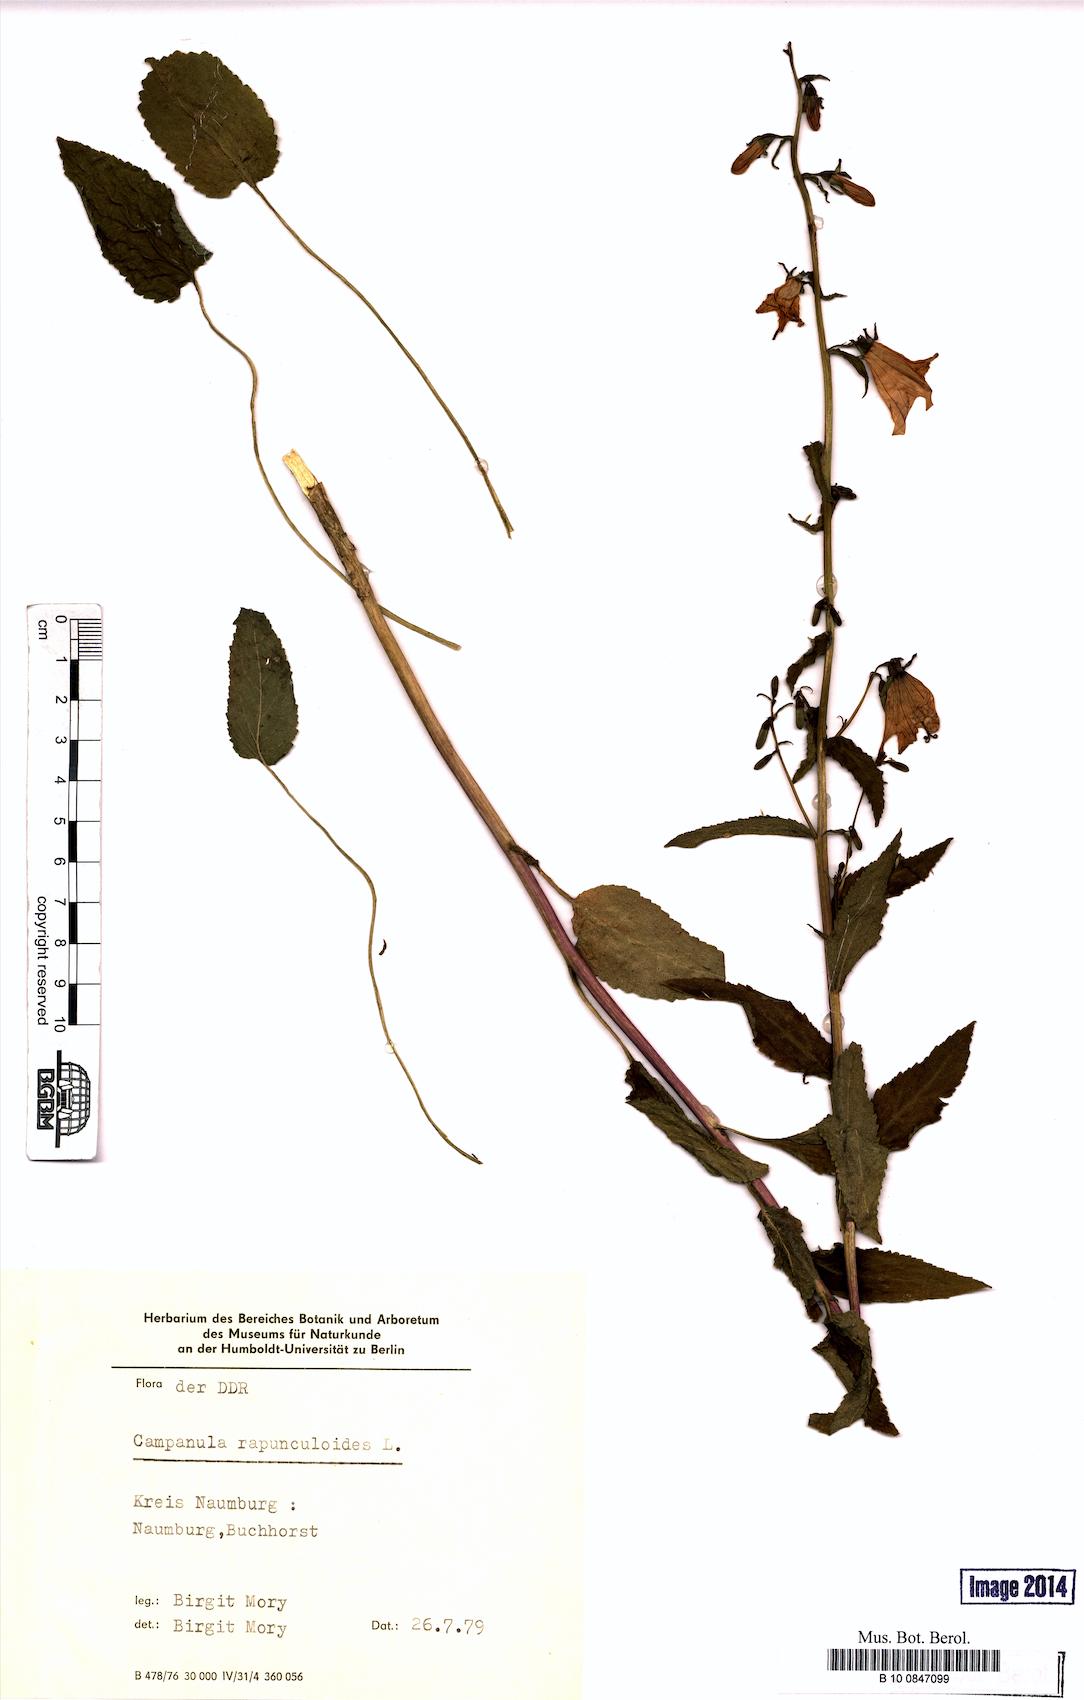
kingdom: Plantae
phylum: Tracheophyta
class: Magnoliopsida
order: Asterales
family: Campanulaceae
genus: Campanula
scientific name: Campanula rapunculoides
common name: Creeping bellflower
